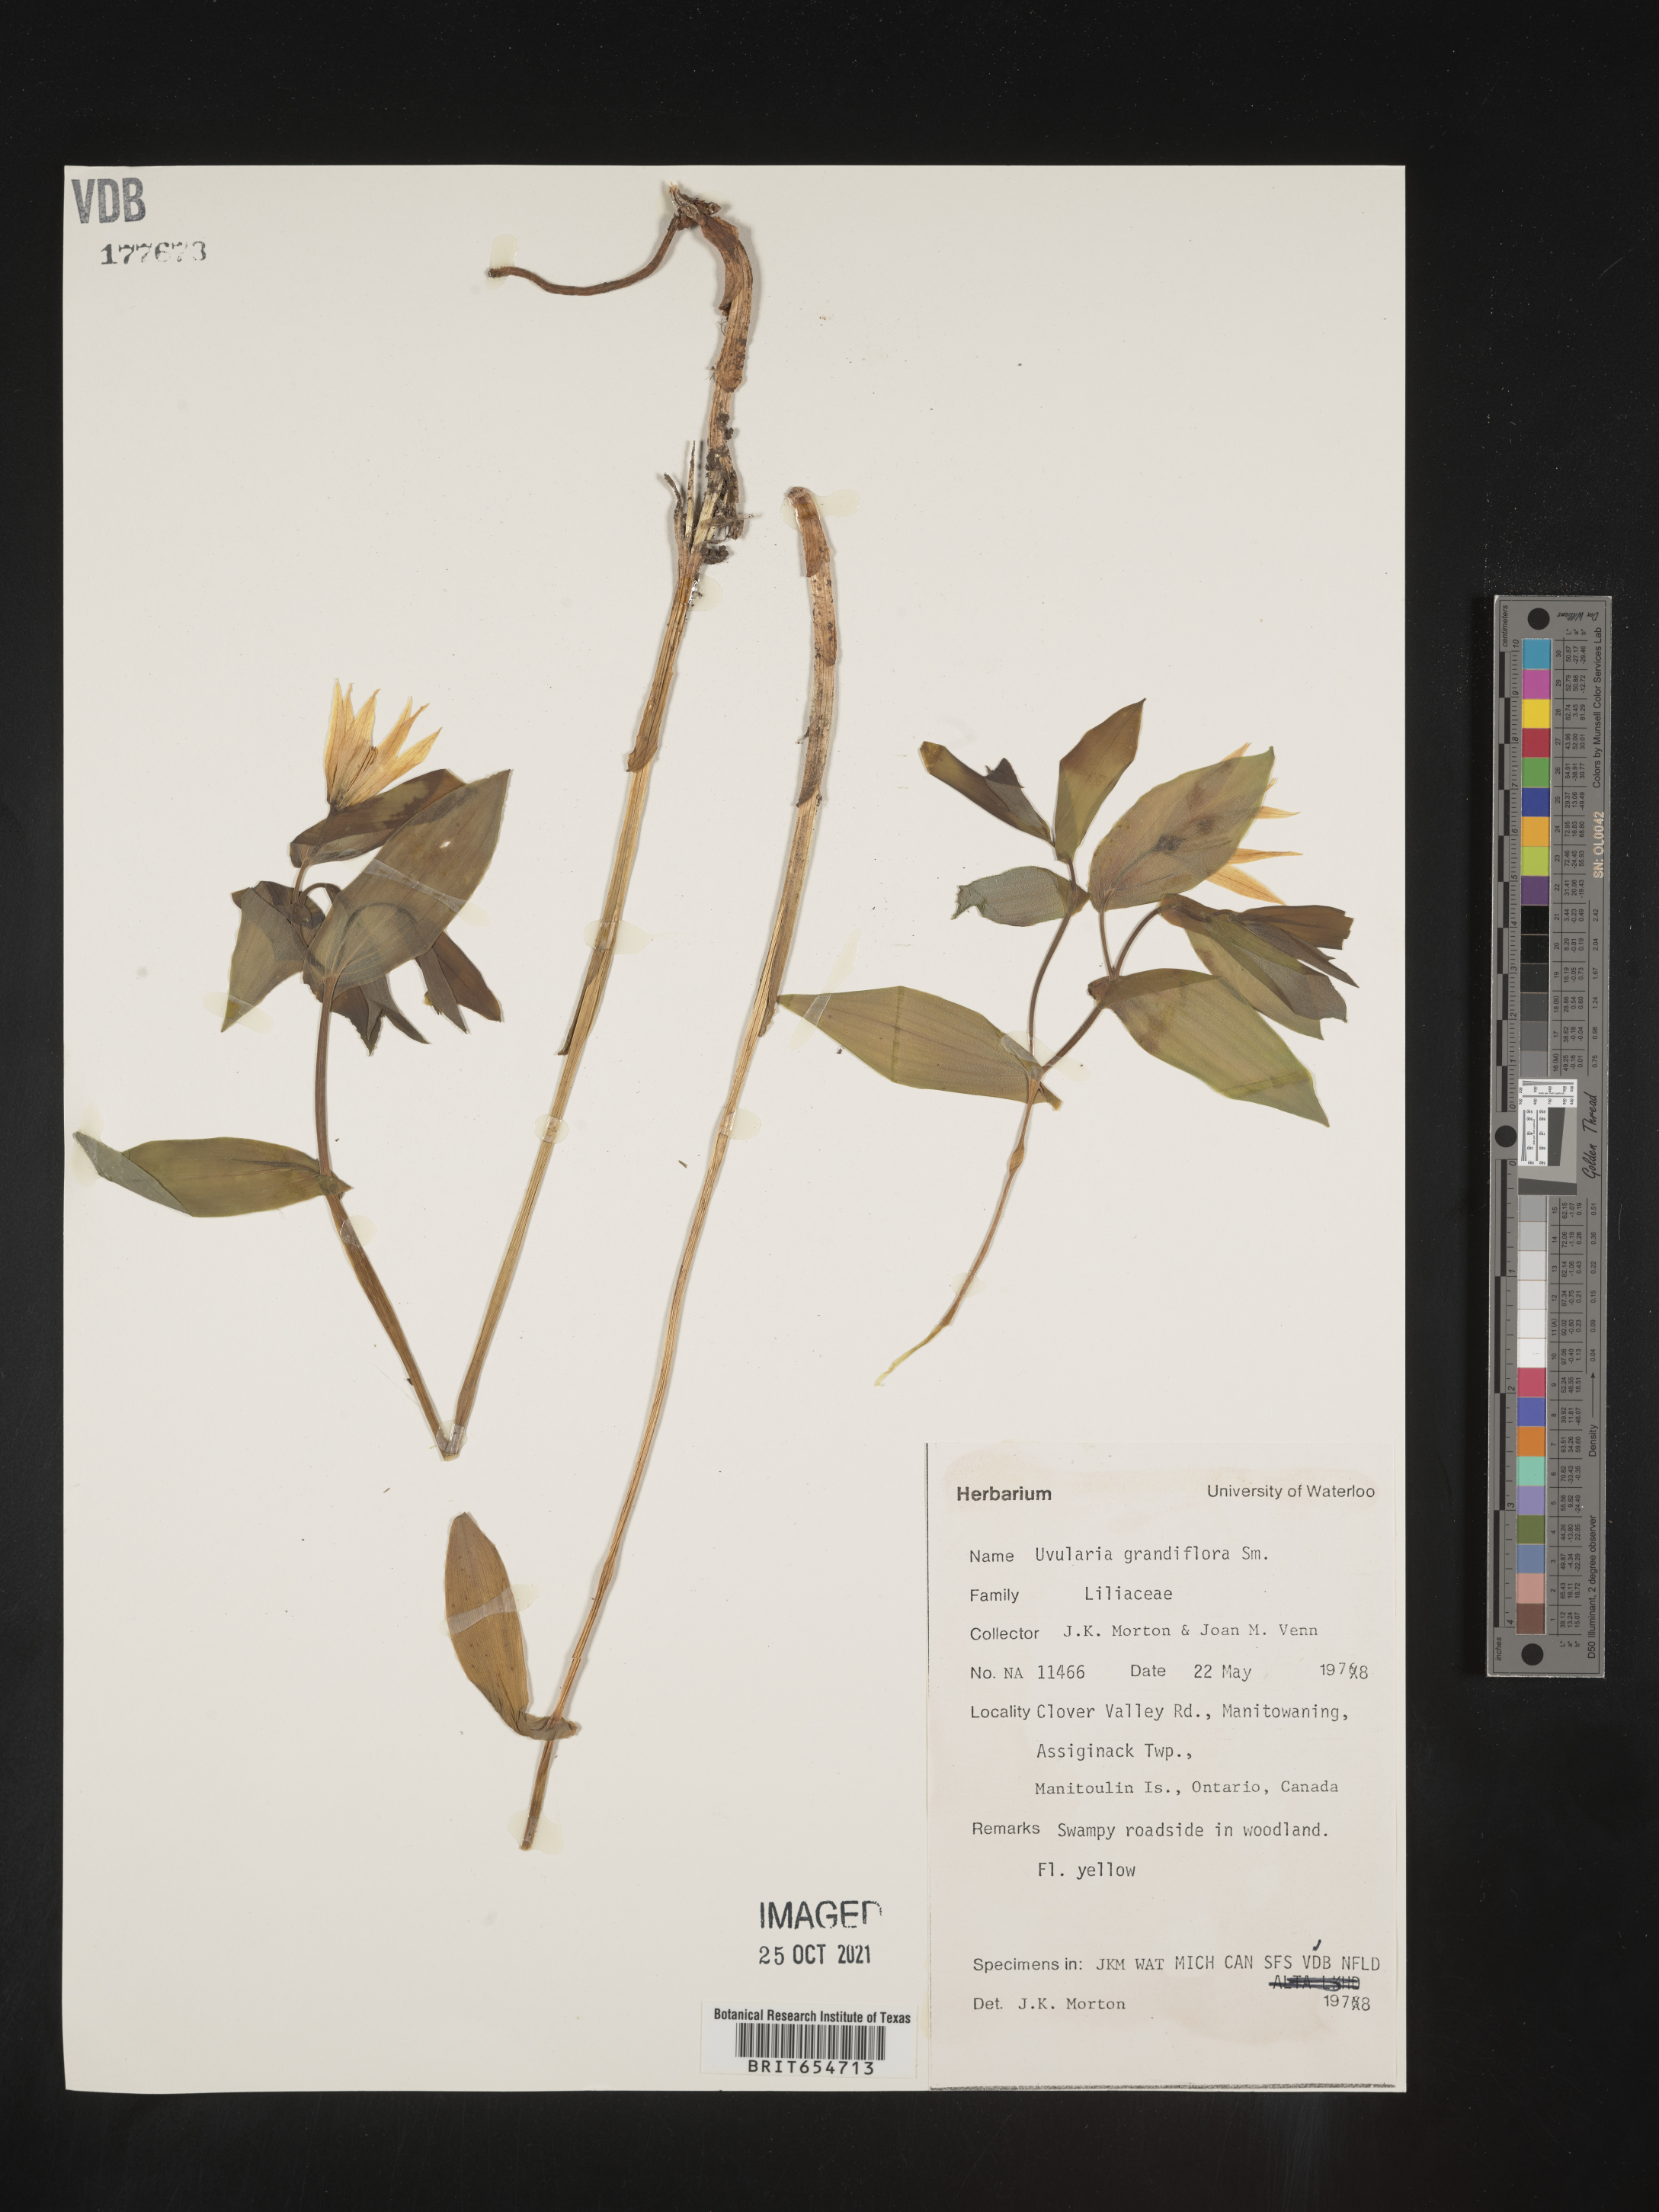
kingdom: Plantae
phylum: Tracheophyta
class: Liliopsida
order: Liliales
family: Colchicaceae
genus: Uvularia
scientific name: Uvularia grandiflora
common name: Bellwort
